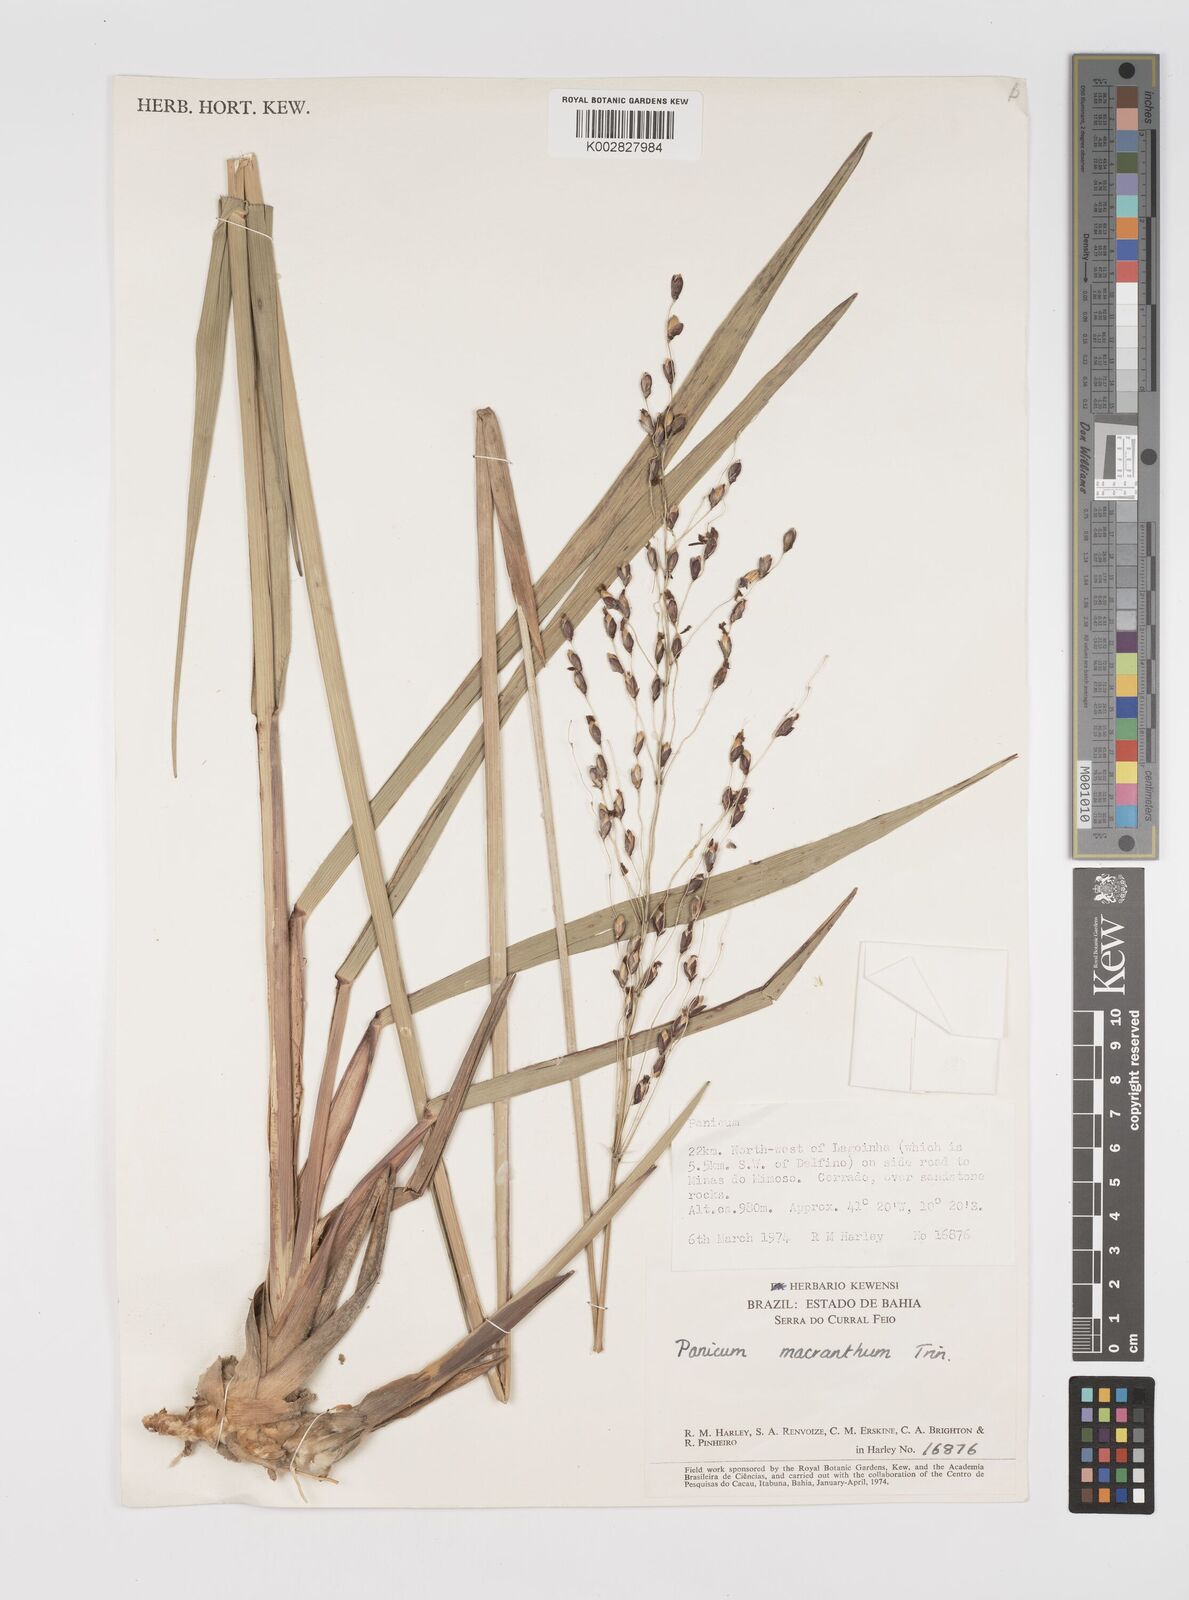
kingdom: Plantae
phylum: Tracheophyta
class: Liliopsida
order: Poales
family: Poaceae
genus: Oncorachis
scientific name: Oncorachis ramosa
